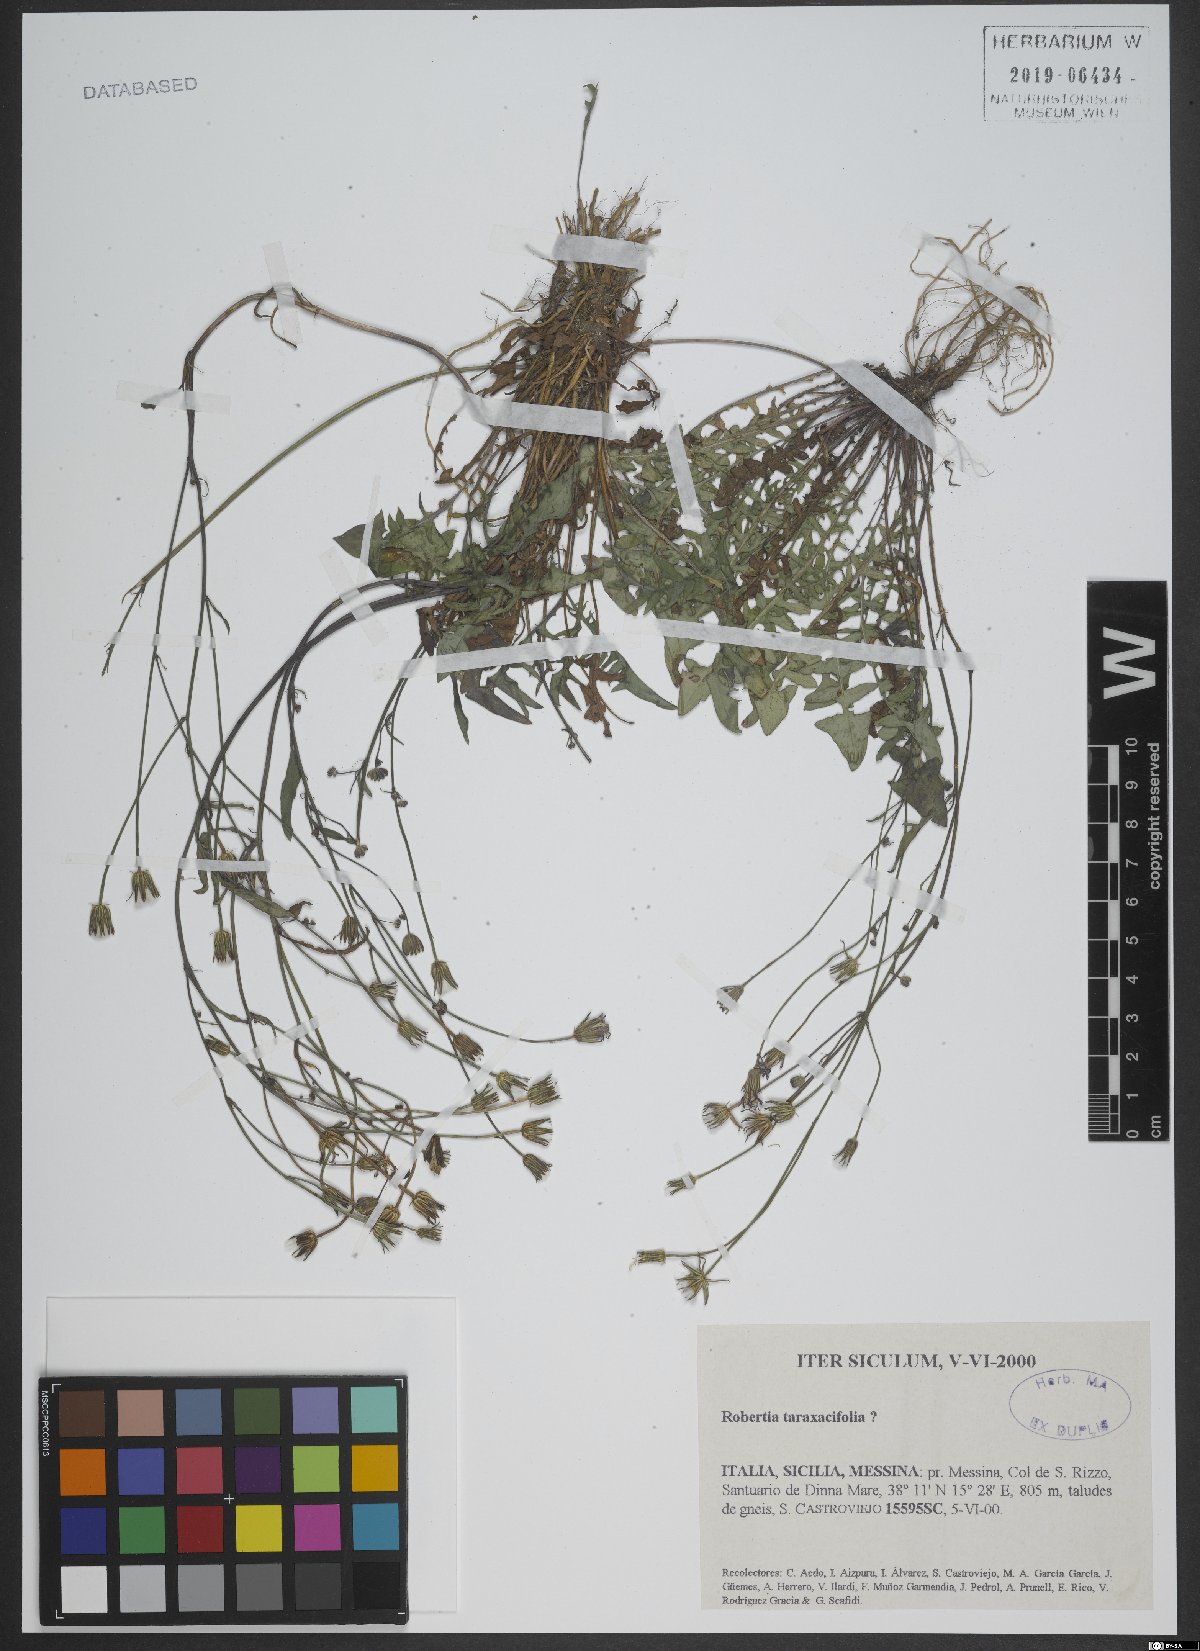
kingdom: Plantae
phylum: Tracheophyta
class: Magnoliopsida
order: Asterales
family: Asteraceae
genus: Hypochaeris
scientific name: Hypochaeris robertia
